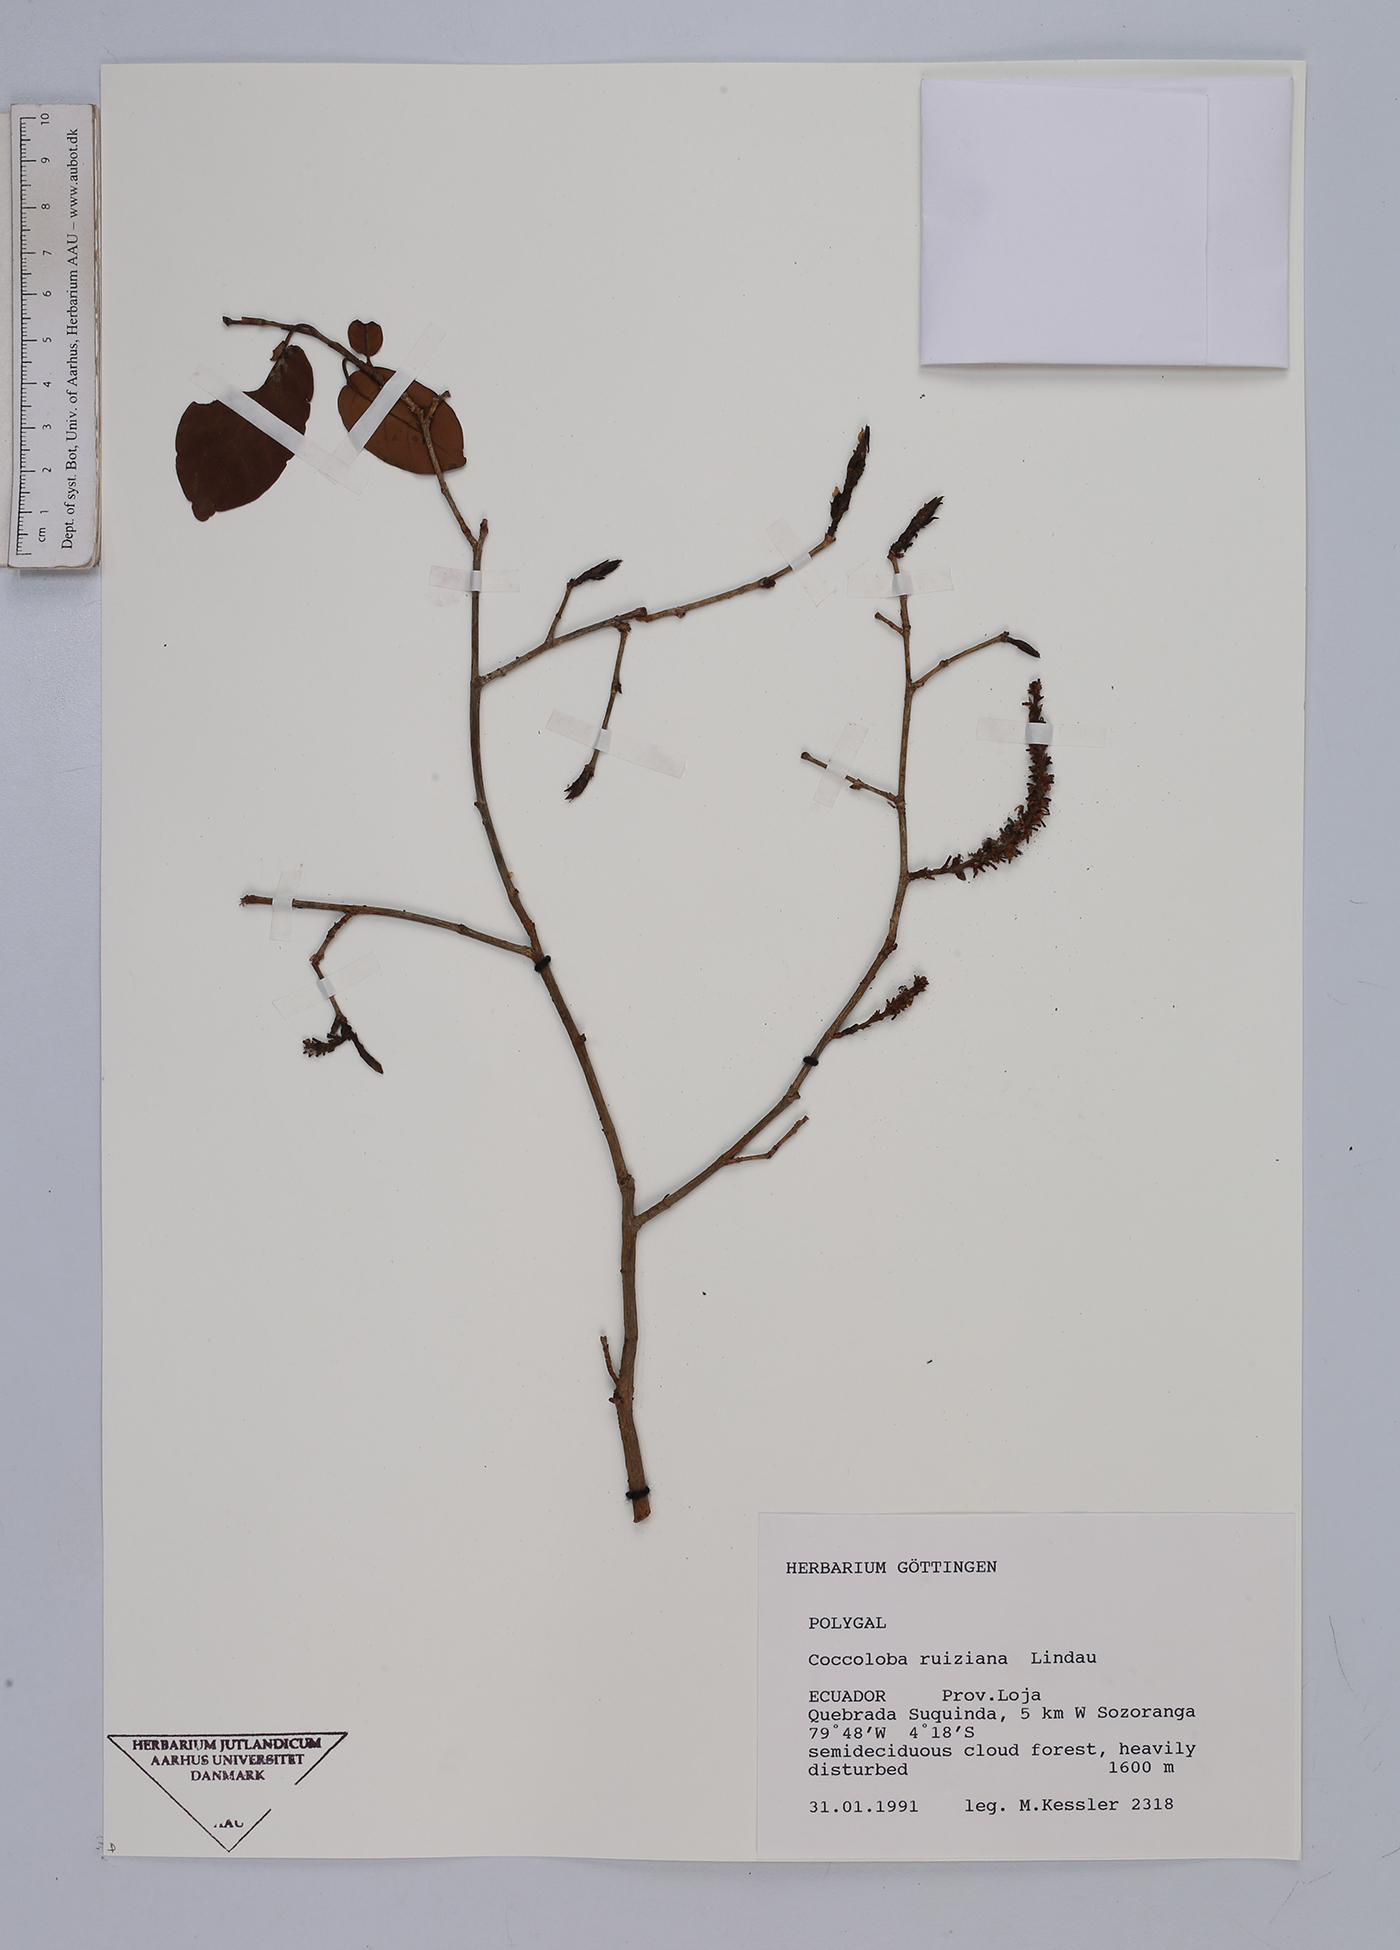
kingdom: Plantae
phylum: Tracheophyta
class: Magnoliopsida
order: Caryophyllales
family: Polygonaceae
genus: Coccoloba
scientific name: Coccoloba ruiziana
